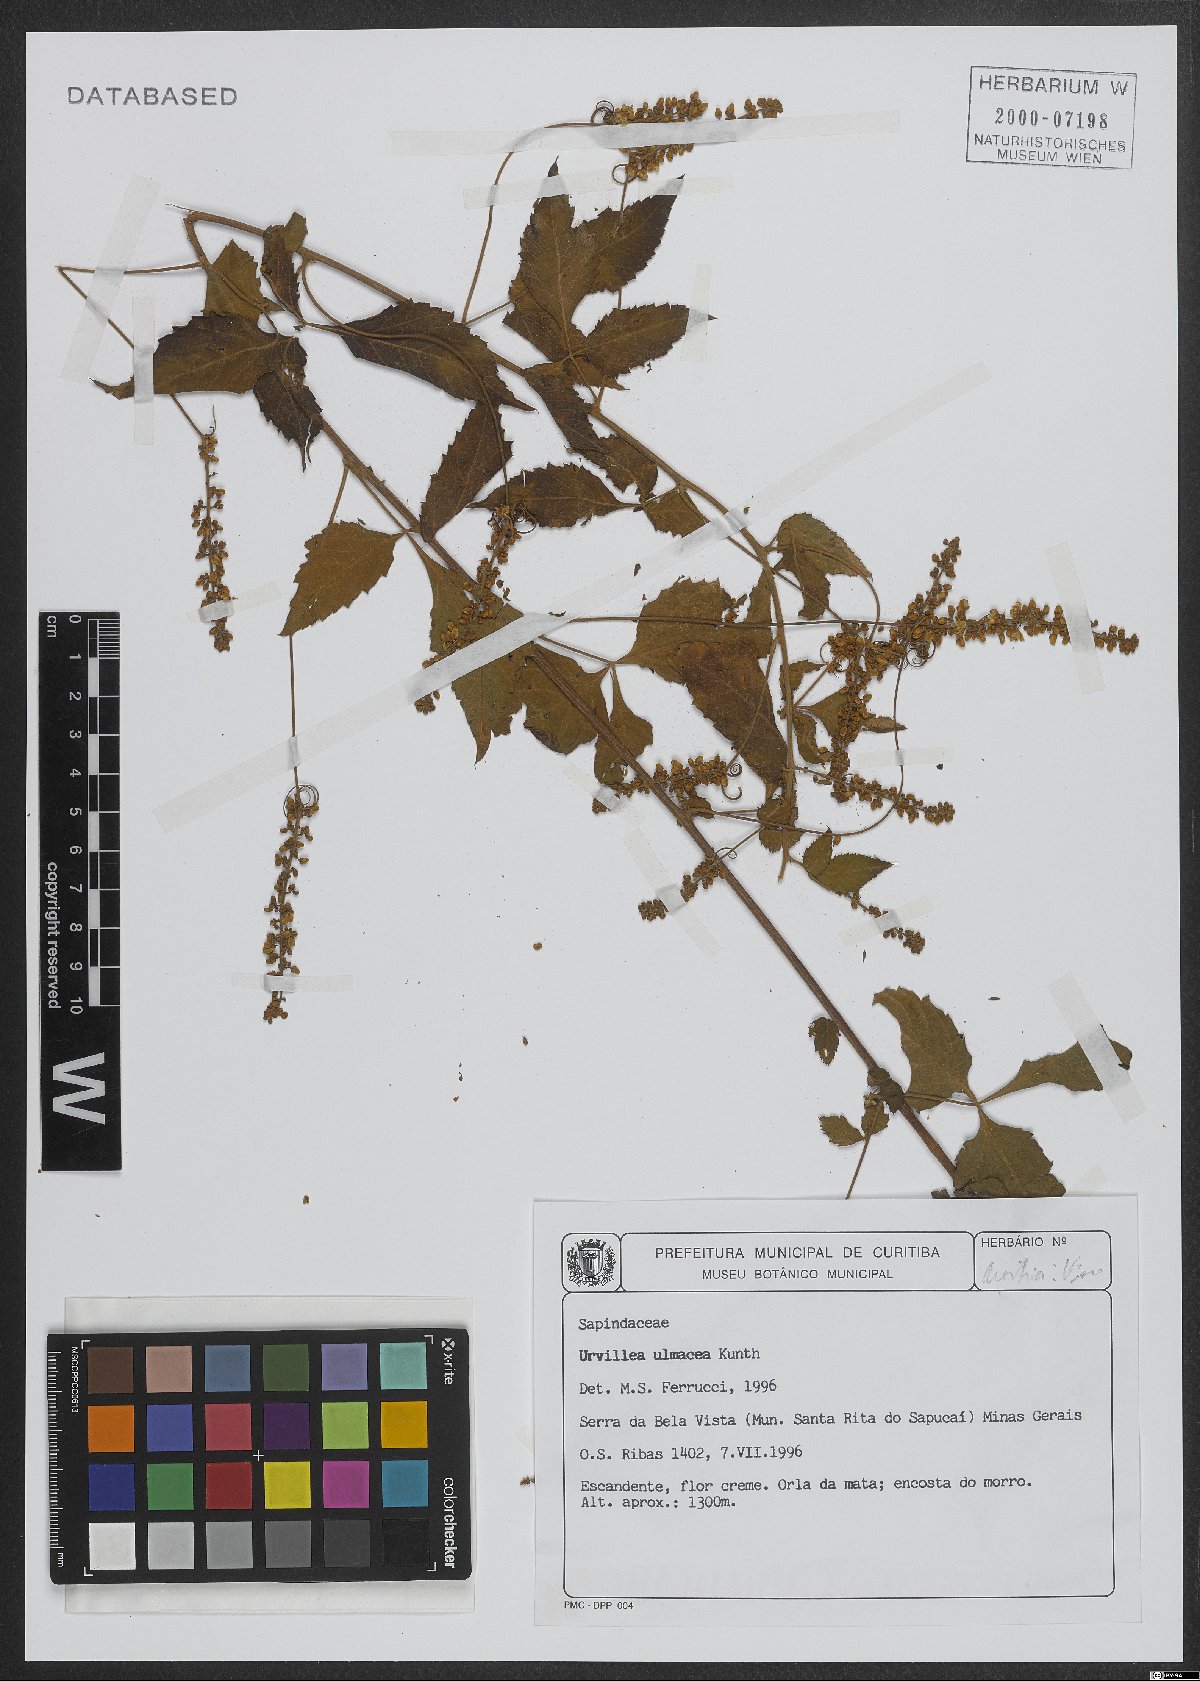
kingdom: Plantae
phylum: Tracheophyta
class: Magnoliopsida
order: Sapindales
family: Sapindaceae
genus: Urvillea
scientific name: Urvillea ulmacea
